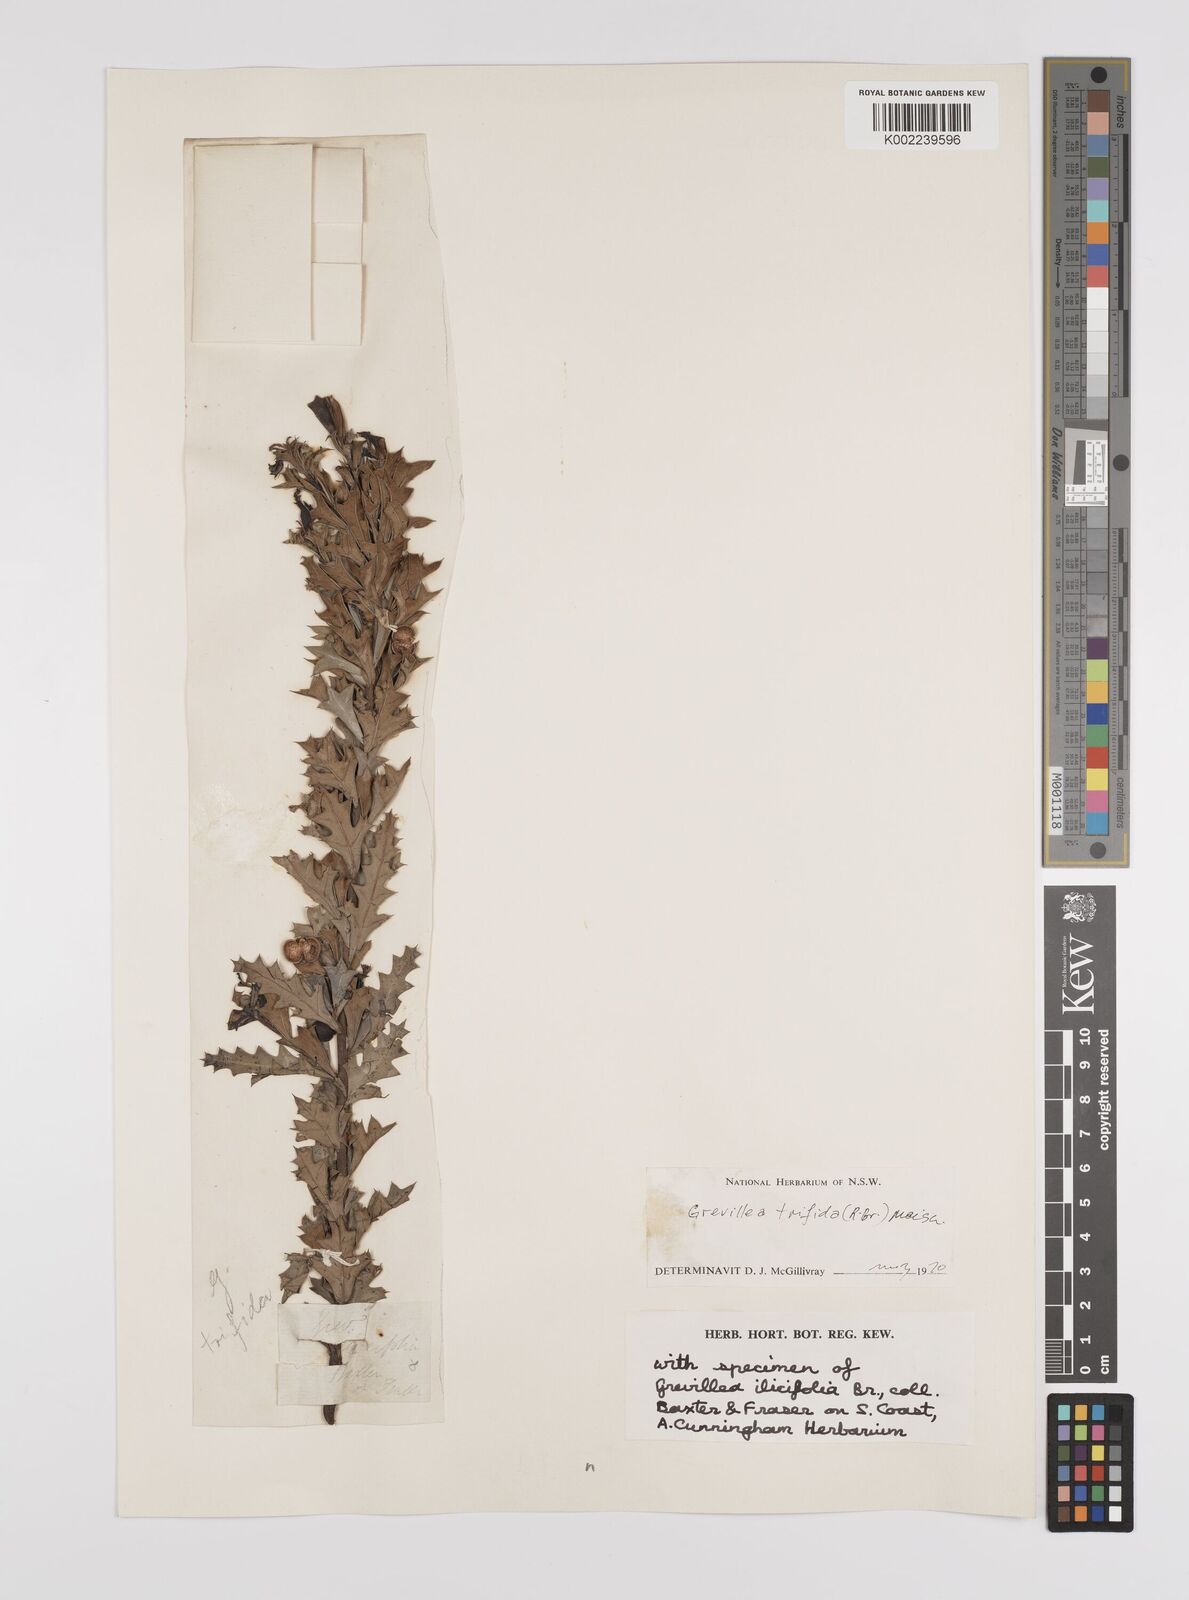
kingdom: Plantae
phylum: Tracheophyta
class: Magnoliopsida
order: Proteales
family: Proteaceae
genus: Grevillea
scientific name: Grevillea trifida
